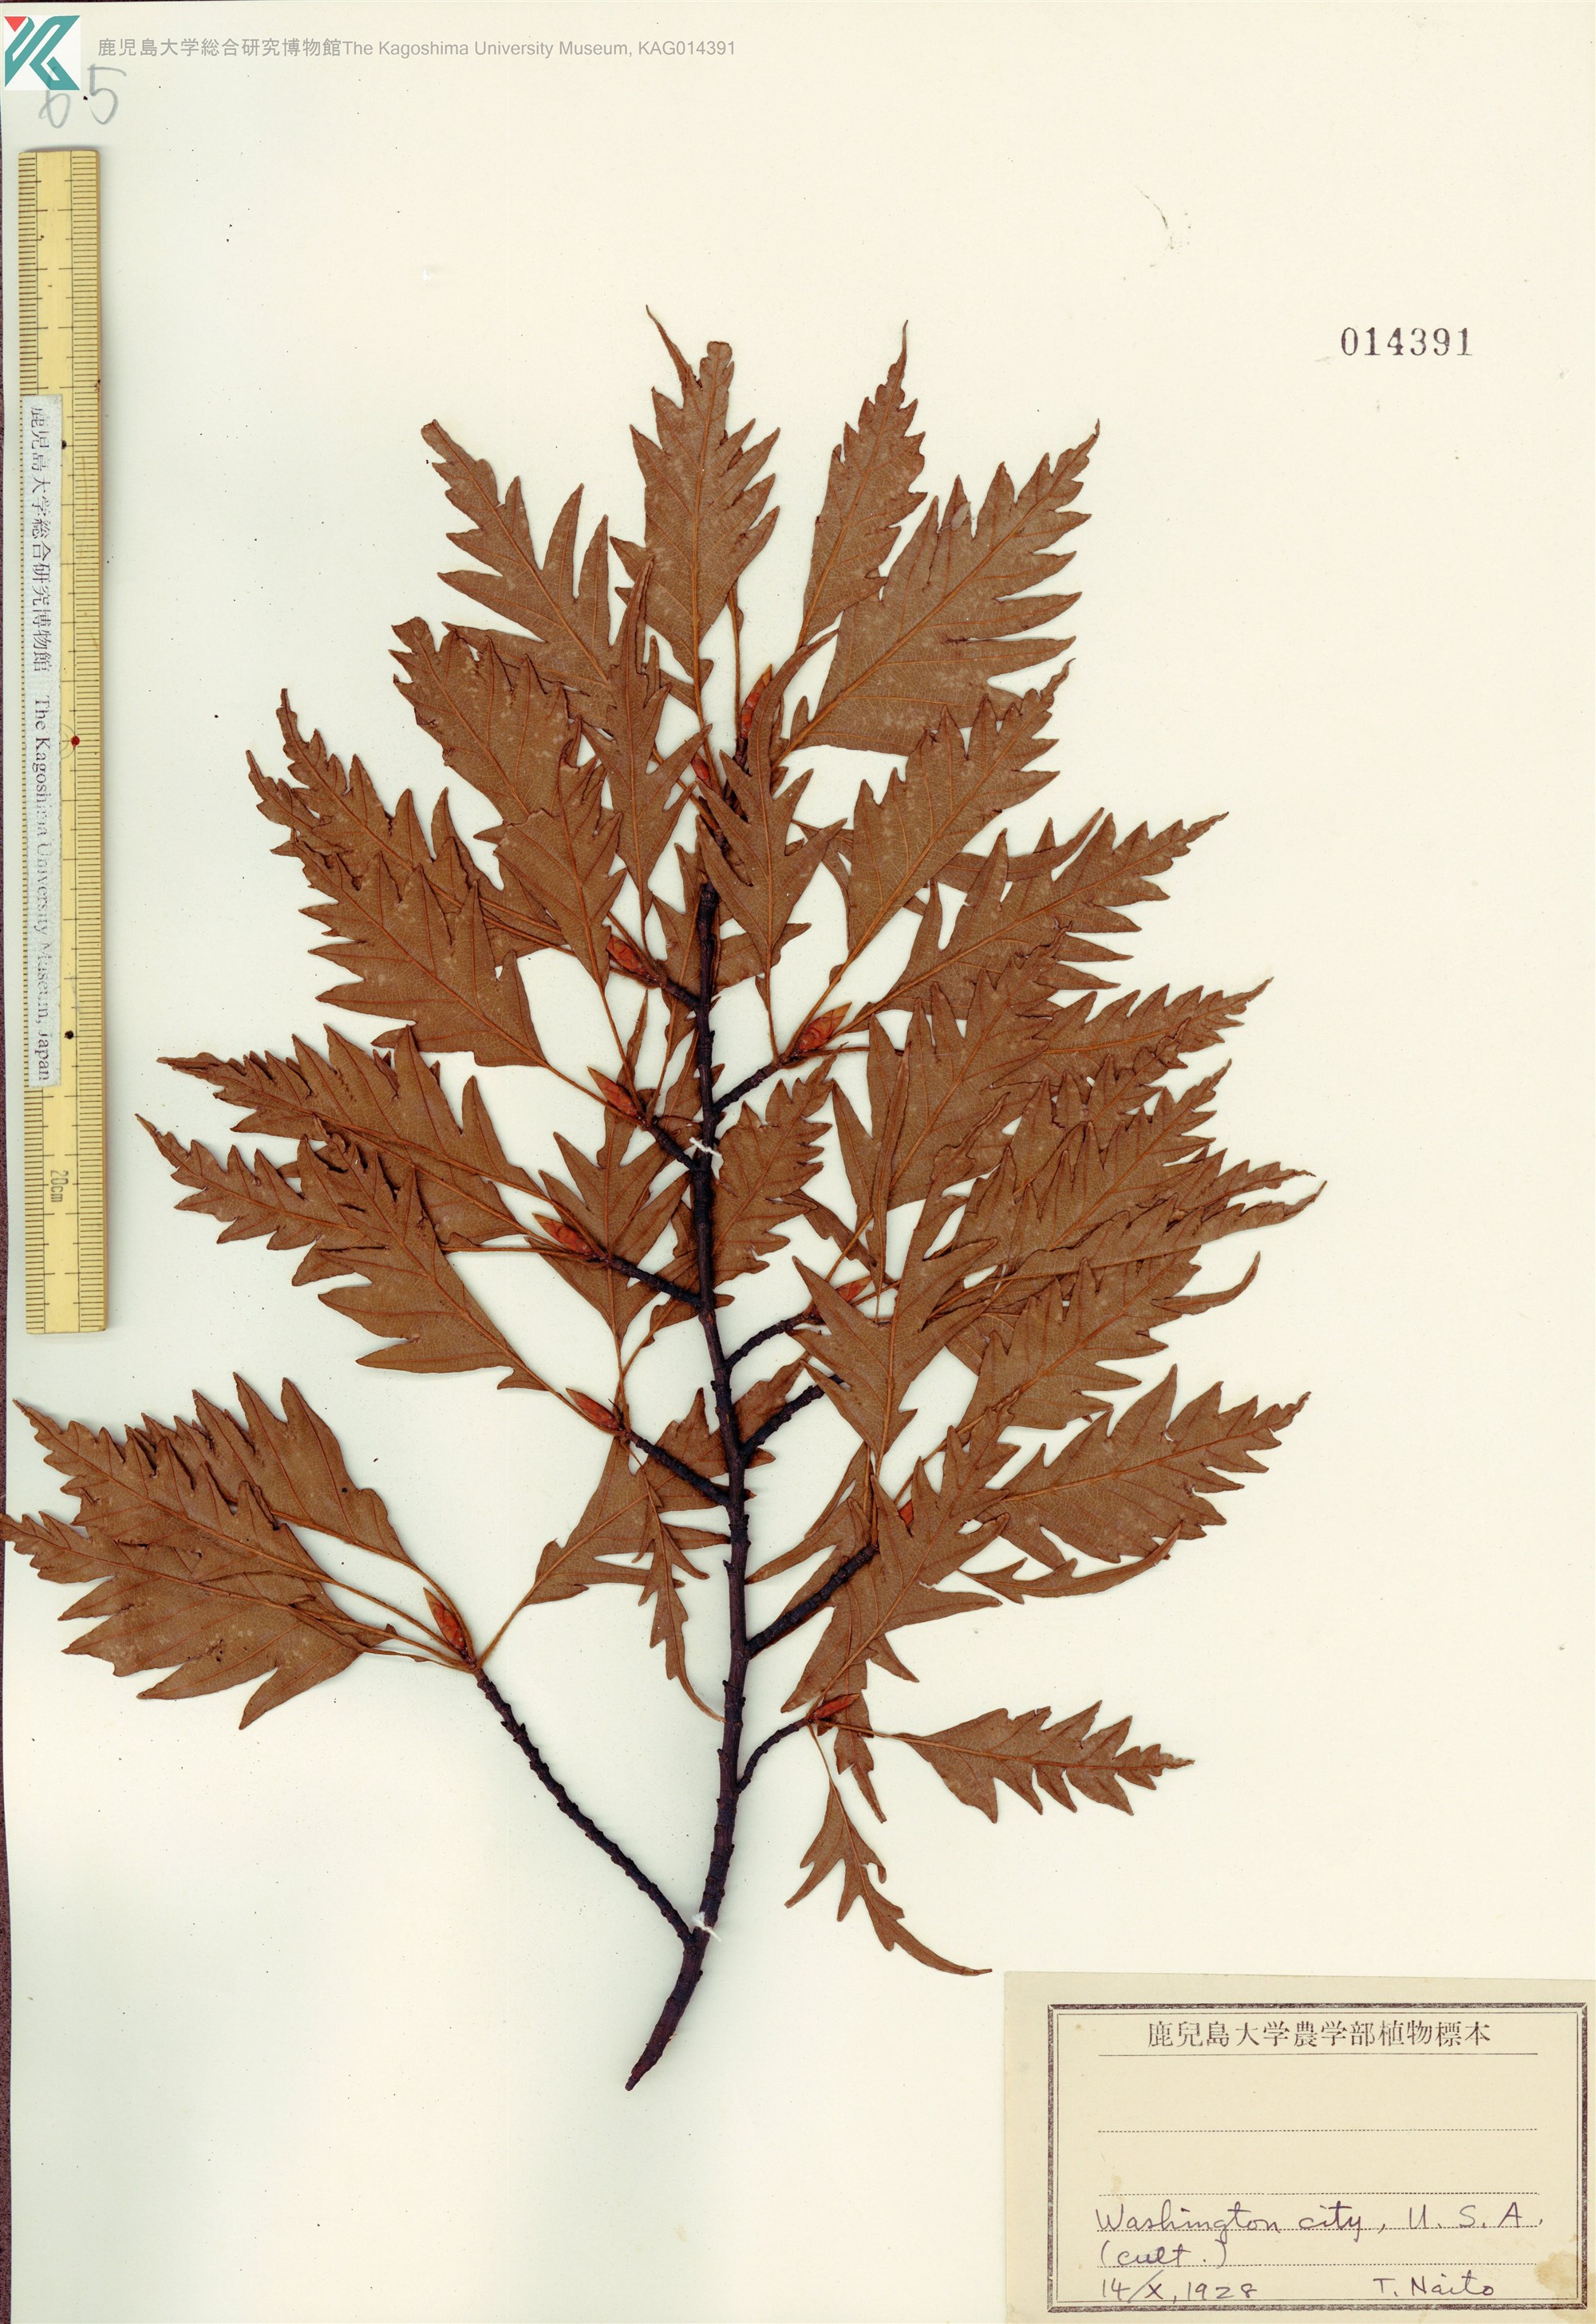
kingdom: Plantae
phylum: Tracheophyta
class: Magnoliopsida
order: Fagales
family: Fagaceae
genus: Quercus
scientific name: Quercus
